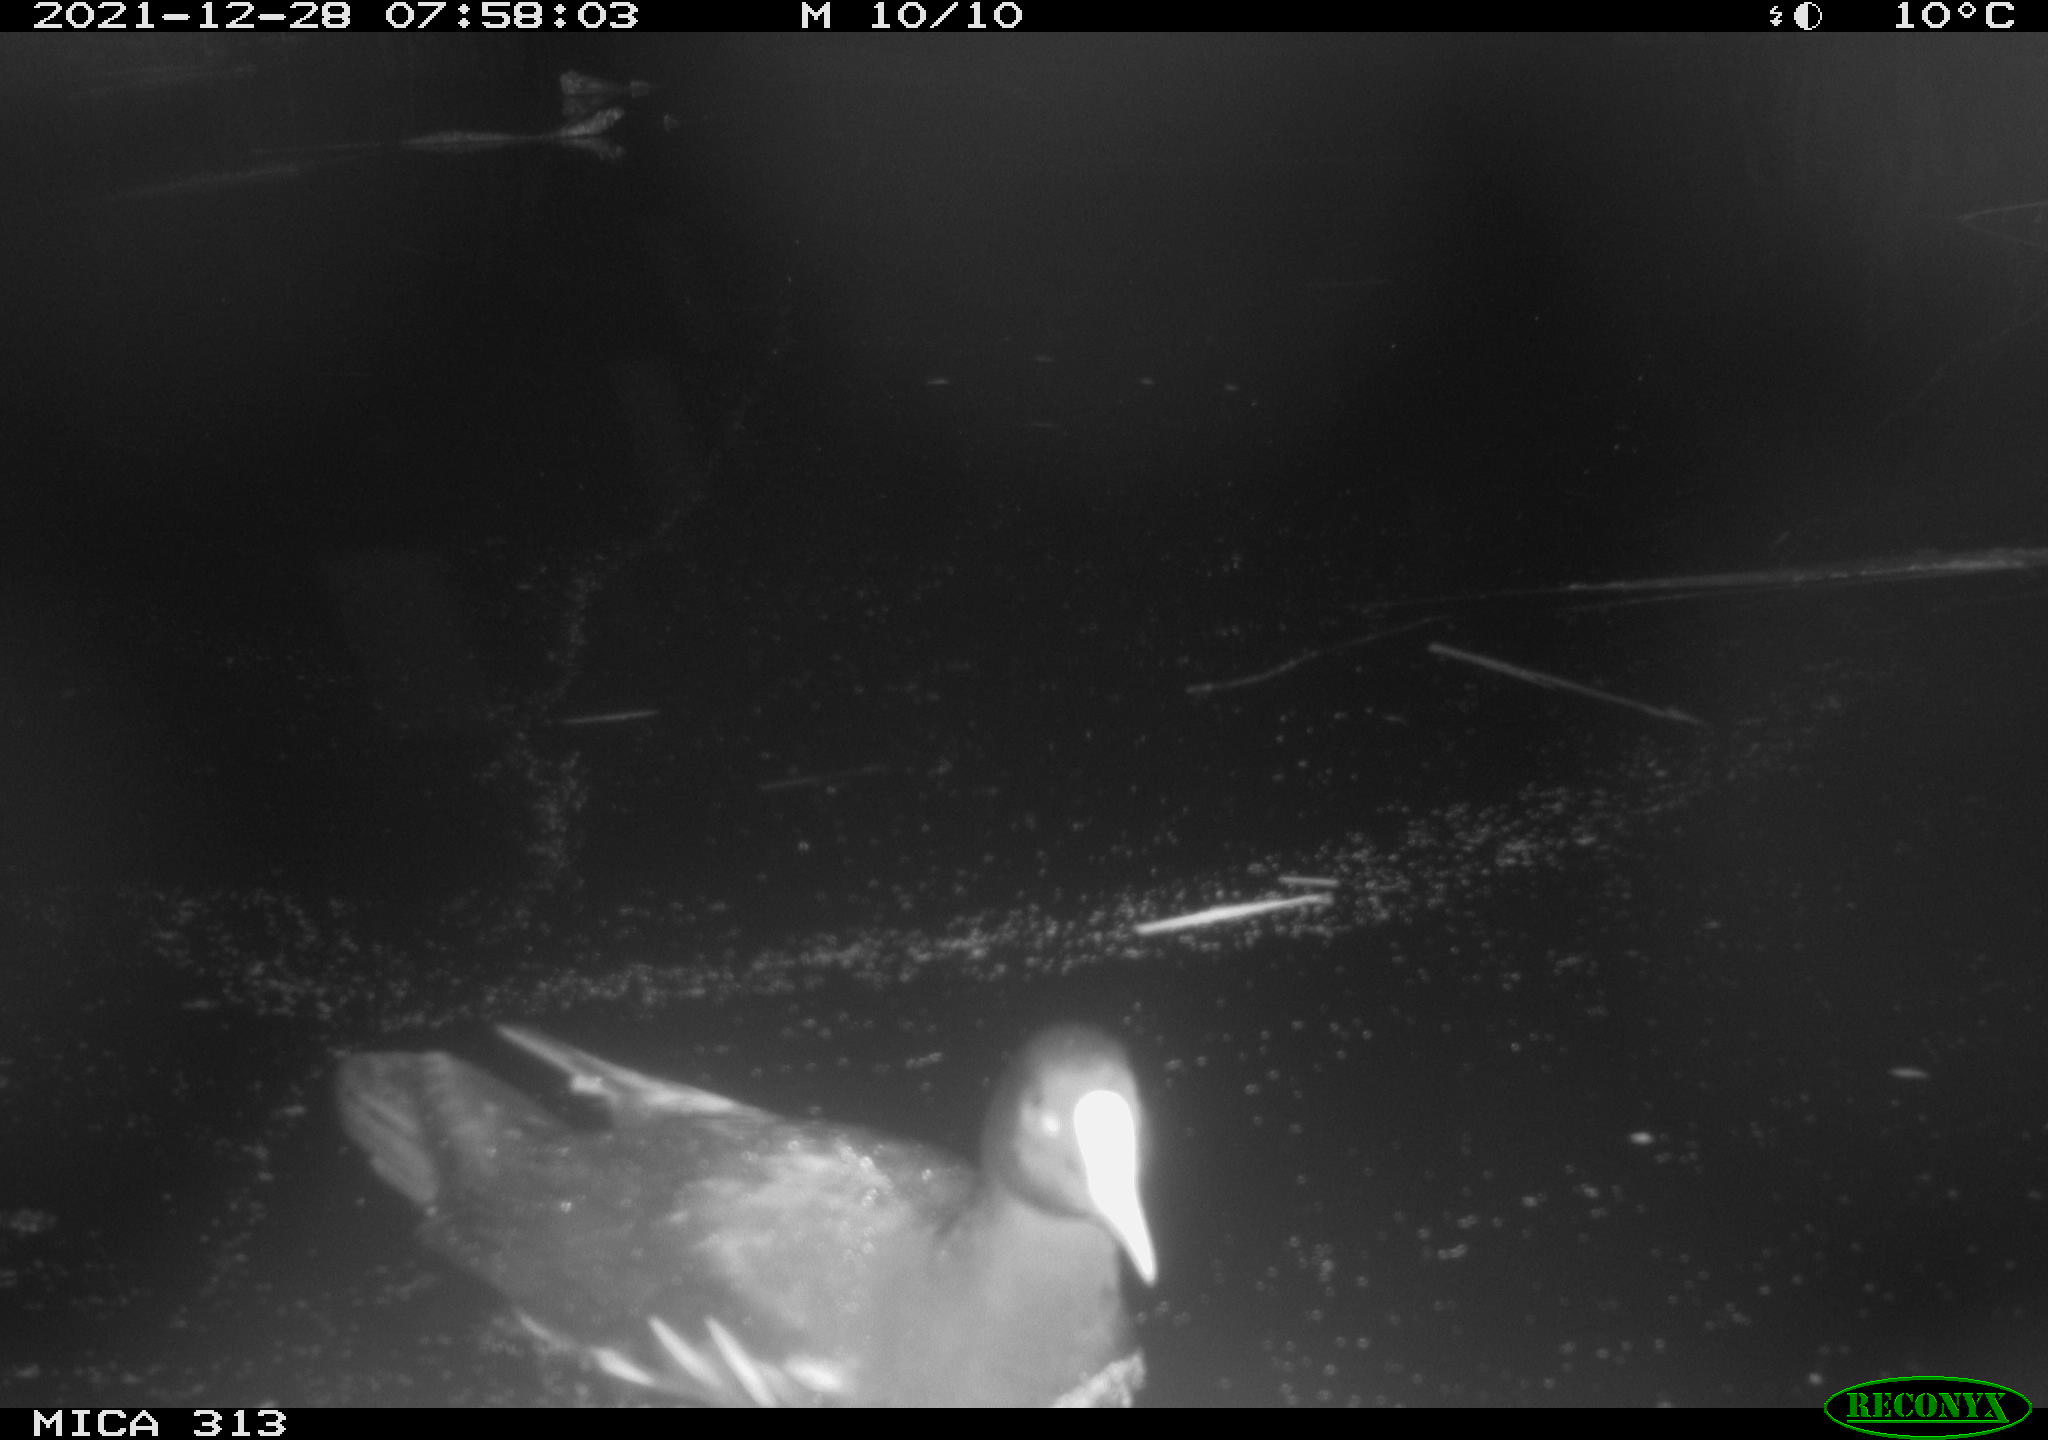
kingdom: Animalia
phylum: Chordata
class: Aves
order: Gruiformes
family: Rallidae
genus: Fulica
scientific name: Fulica atra
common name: Eurasian coot
